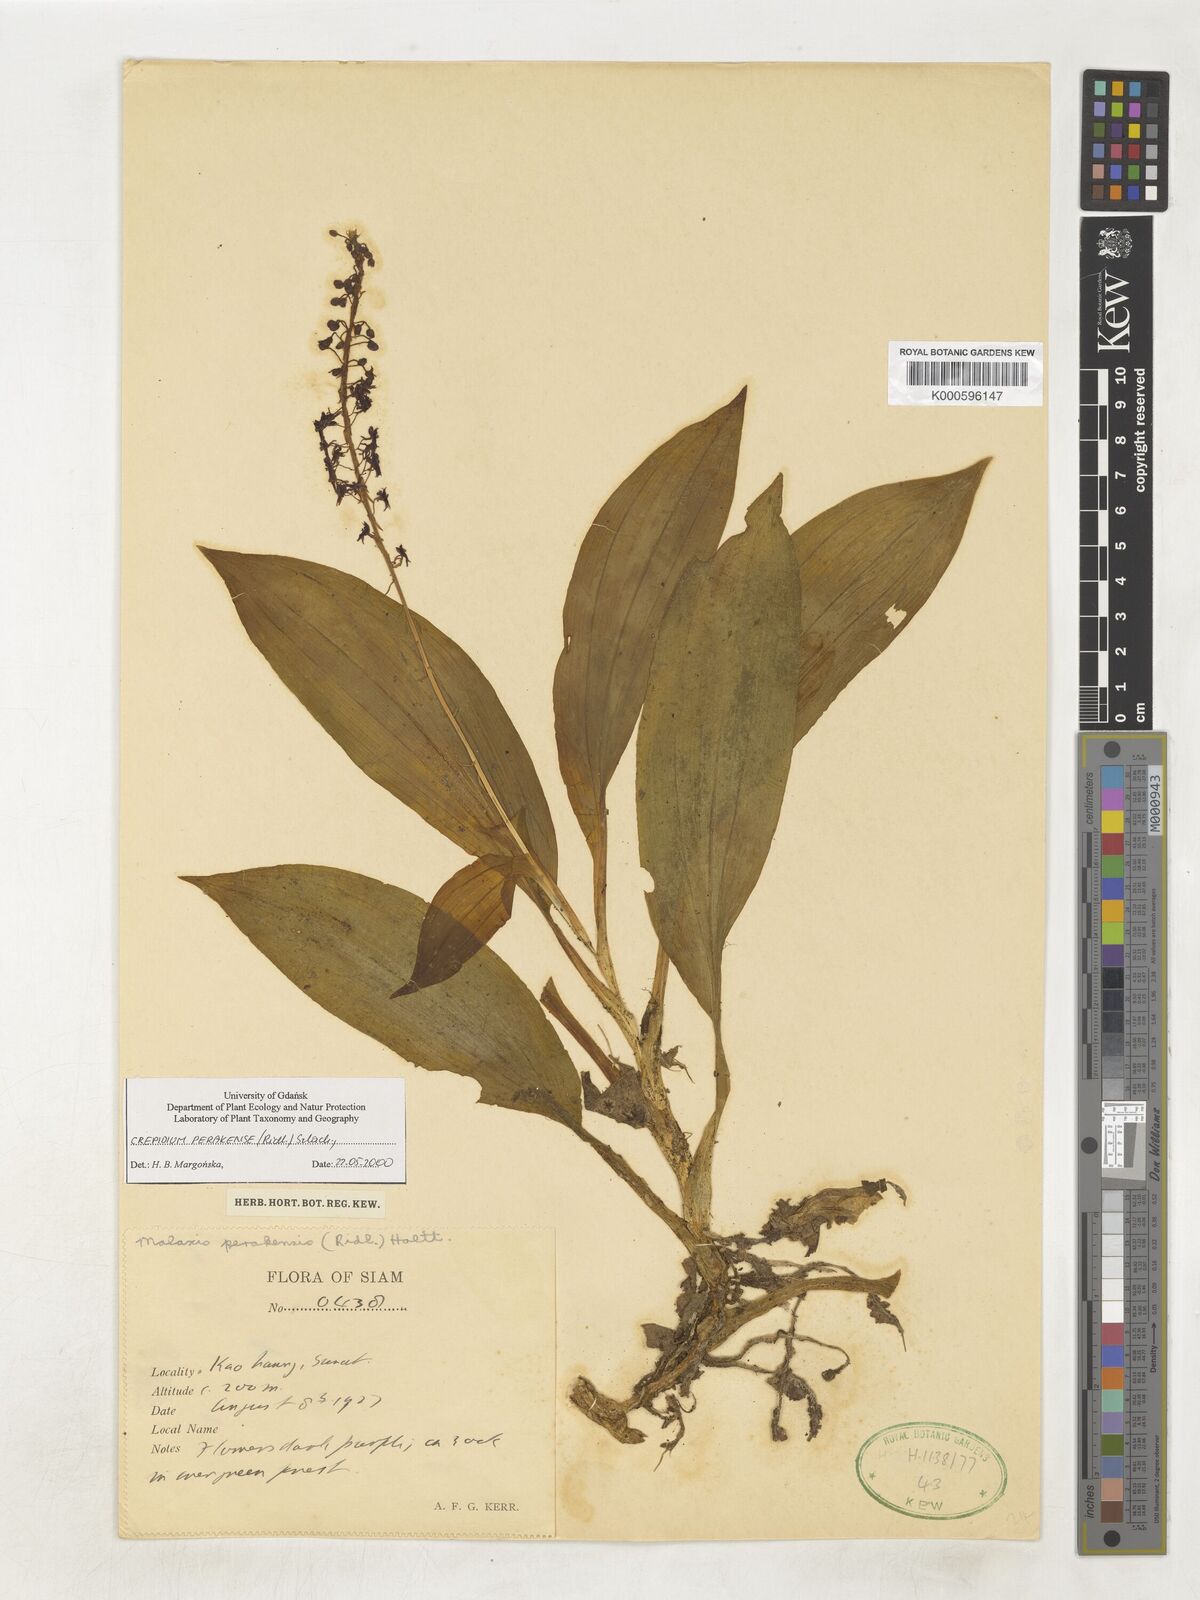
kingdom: Plantae
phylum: Tracheophyta
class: Liliopsida
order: Asparagales
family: Orchidaceae
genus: Crepidium
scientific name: Crepidium perakense
